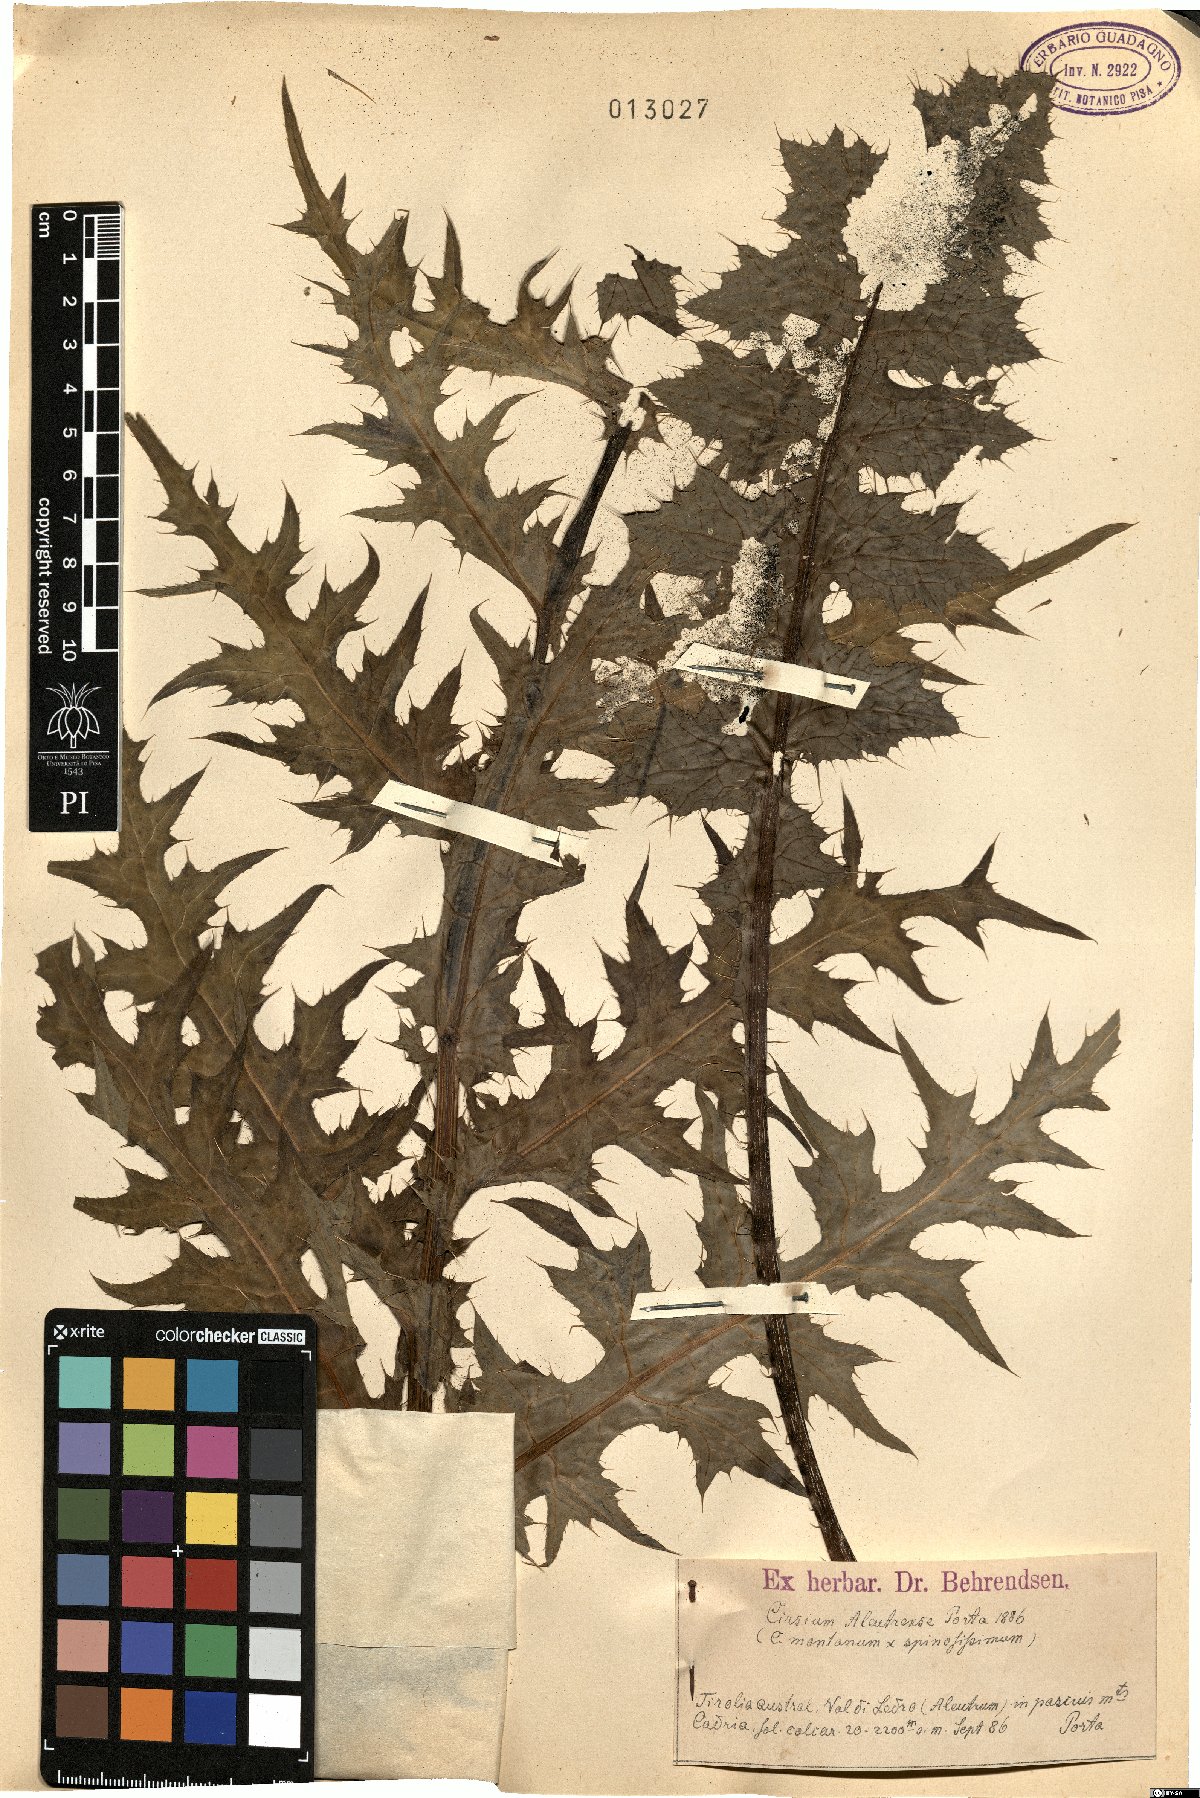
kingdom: Plantae
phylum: Tracheophyta
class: Magnoliopsida
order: Asterales
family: Asteraceae
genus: Cirsium
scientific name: Cirsium aleutrense
